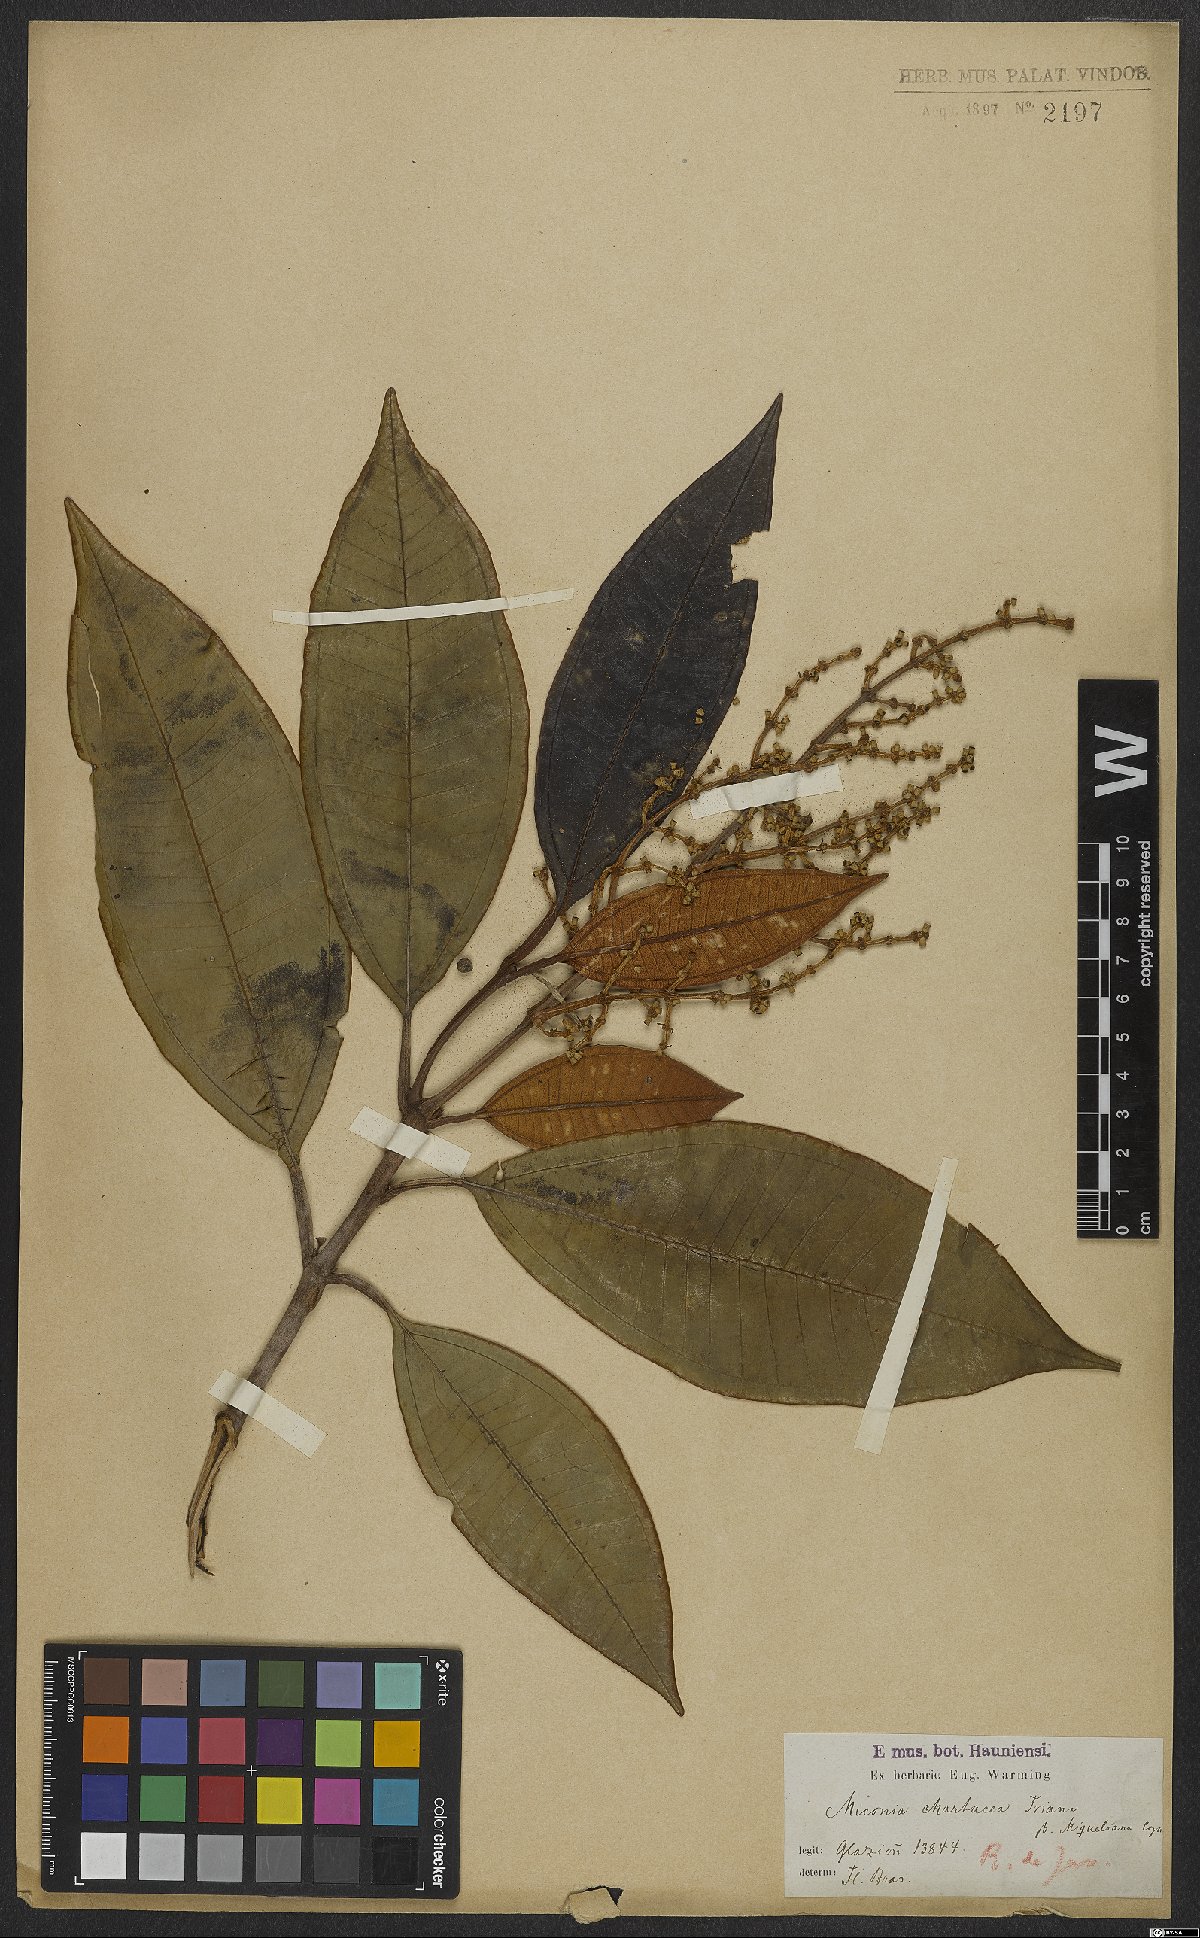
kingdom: Plantae
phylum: Tracheophyta
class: Magnoliopsida
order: Myrtales
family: Melastomataceae
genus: Miconia
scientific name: Miconia chartacea
